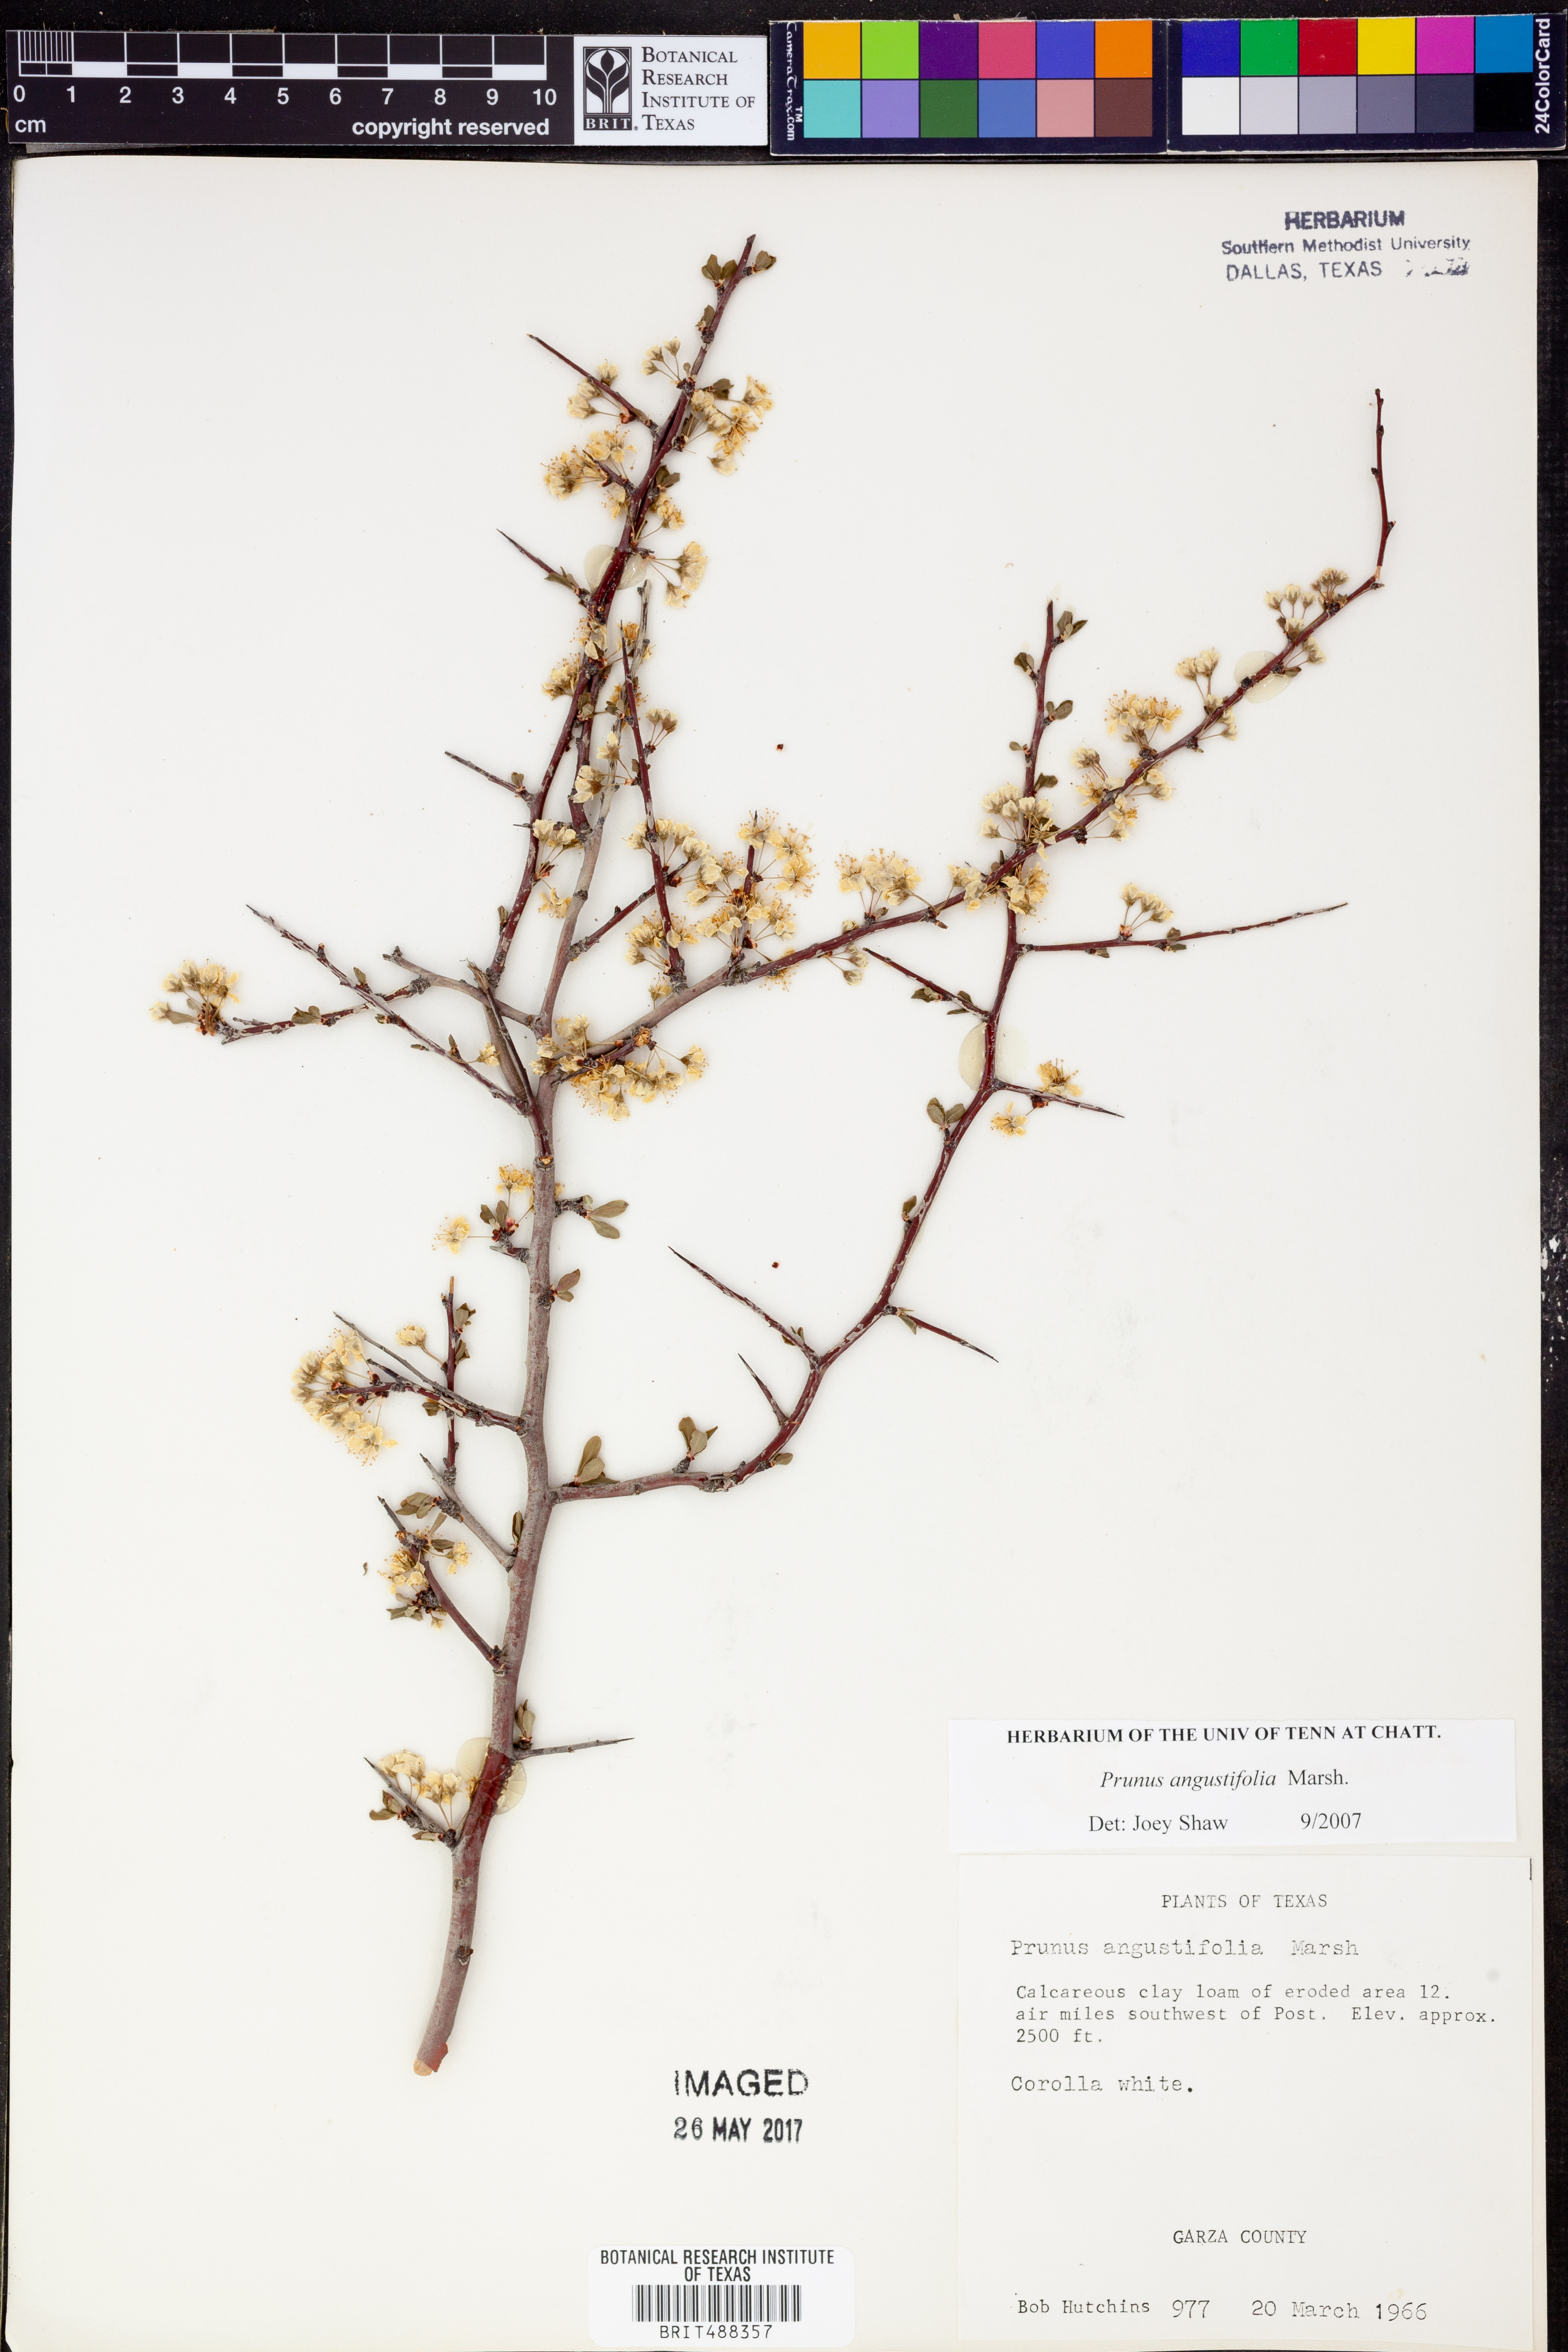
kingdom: Plantae
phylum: Tracheophyta
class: Magnoliopsida
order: Rosales
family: Rosaceae
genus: Prunus
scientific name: Prunus angustifolia
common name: Cherokee plum
